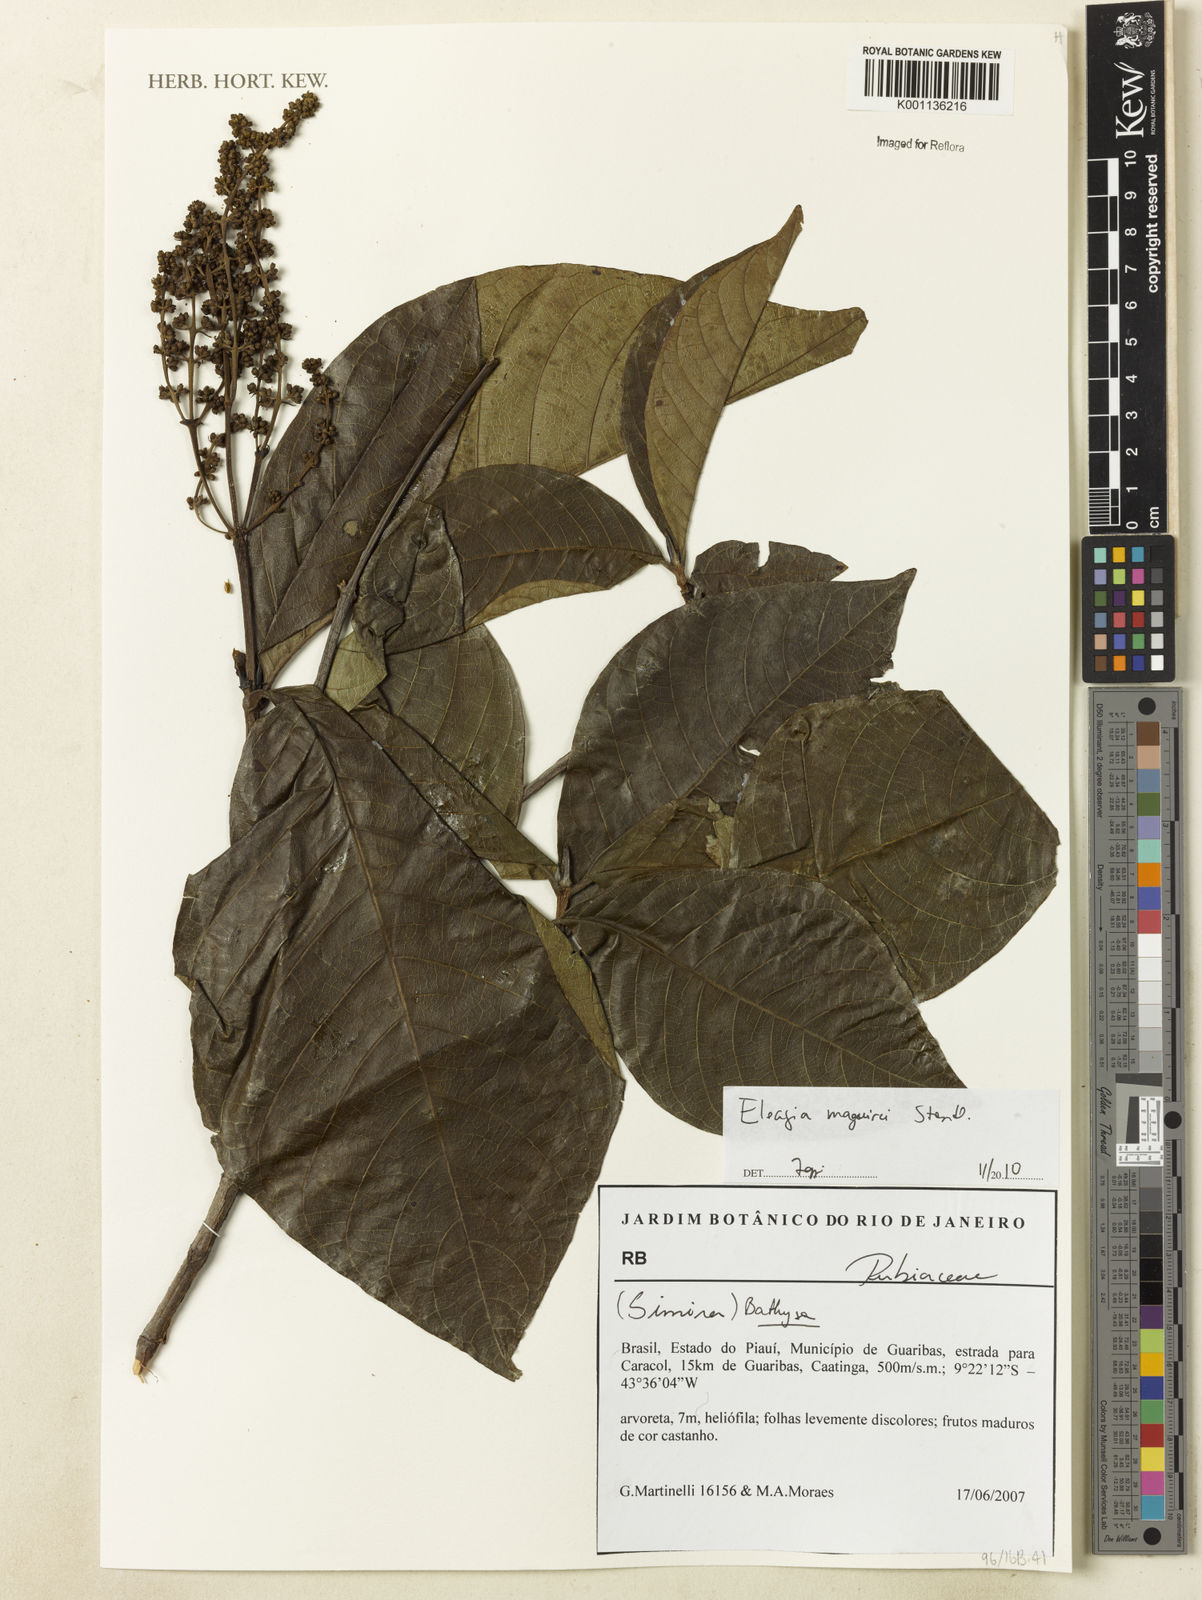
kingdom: Plantae
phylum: Tracheophyta
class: Magnoliopsida
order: Gentianales
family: Rubiaceae
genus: Elaeagia
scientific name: Elaeagia maguirei
